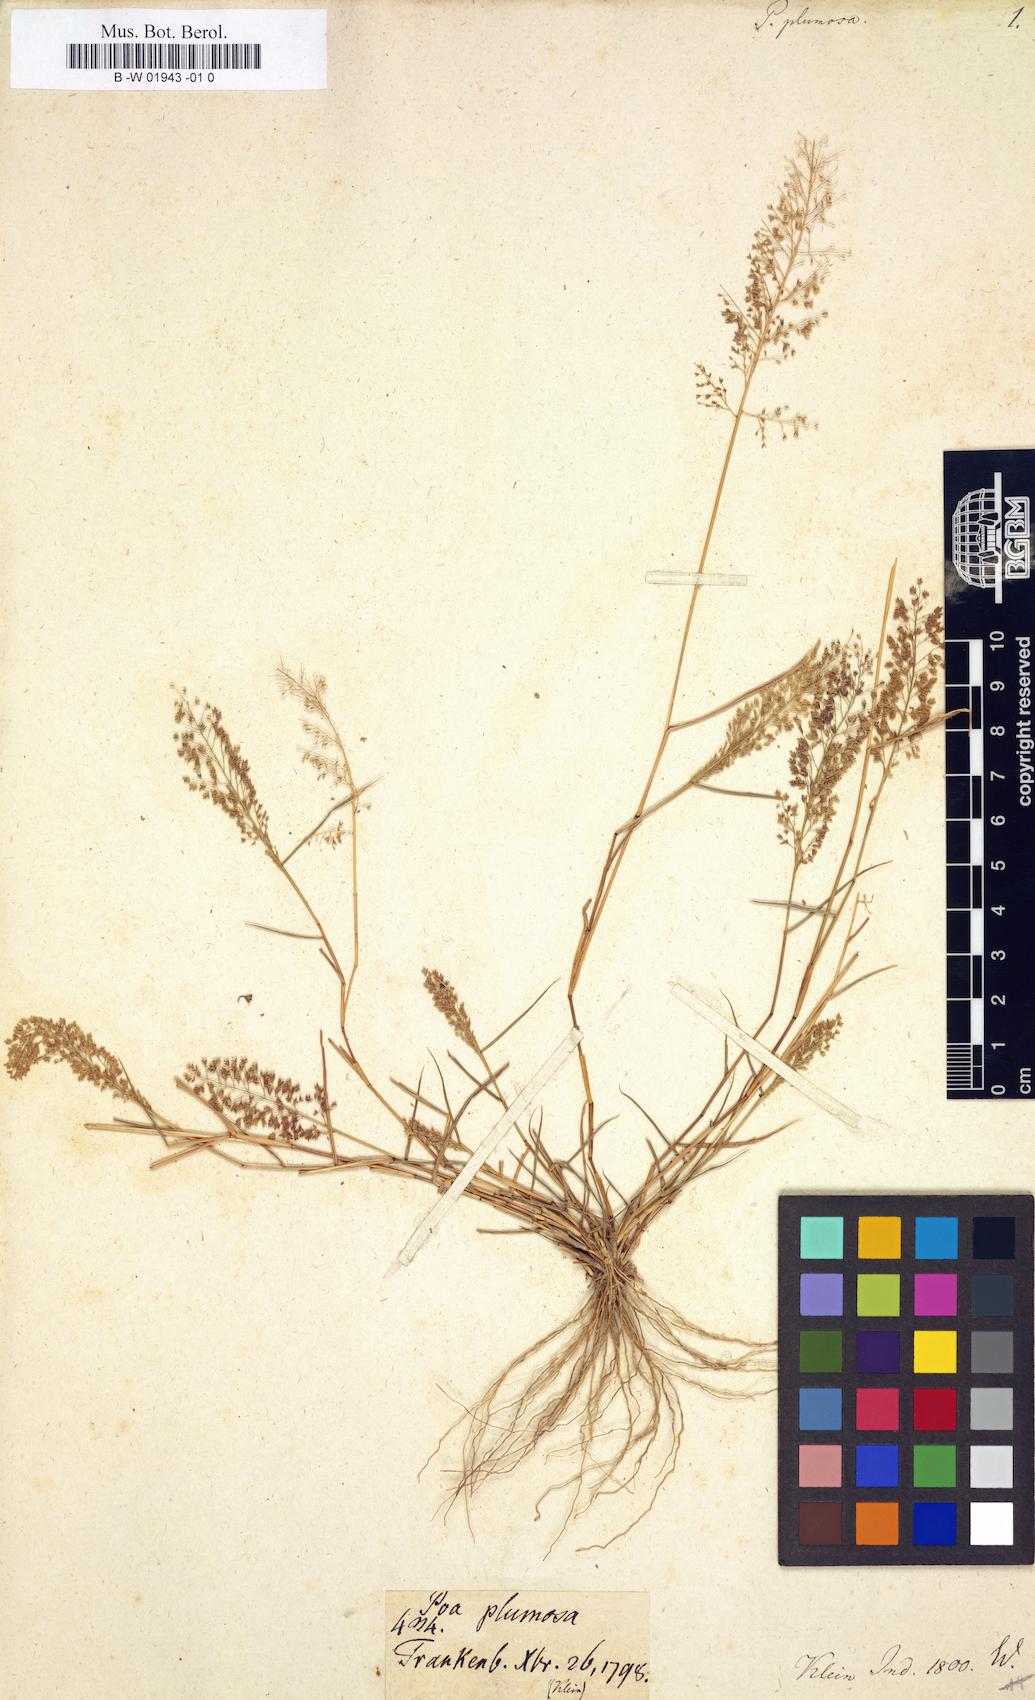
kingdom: Plantae
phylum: Tracheophyta
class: Liliopsida
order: Poales
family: Poaceae
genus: Eragrostis
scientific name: Eragrostis
